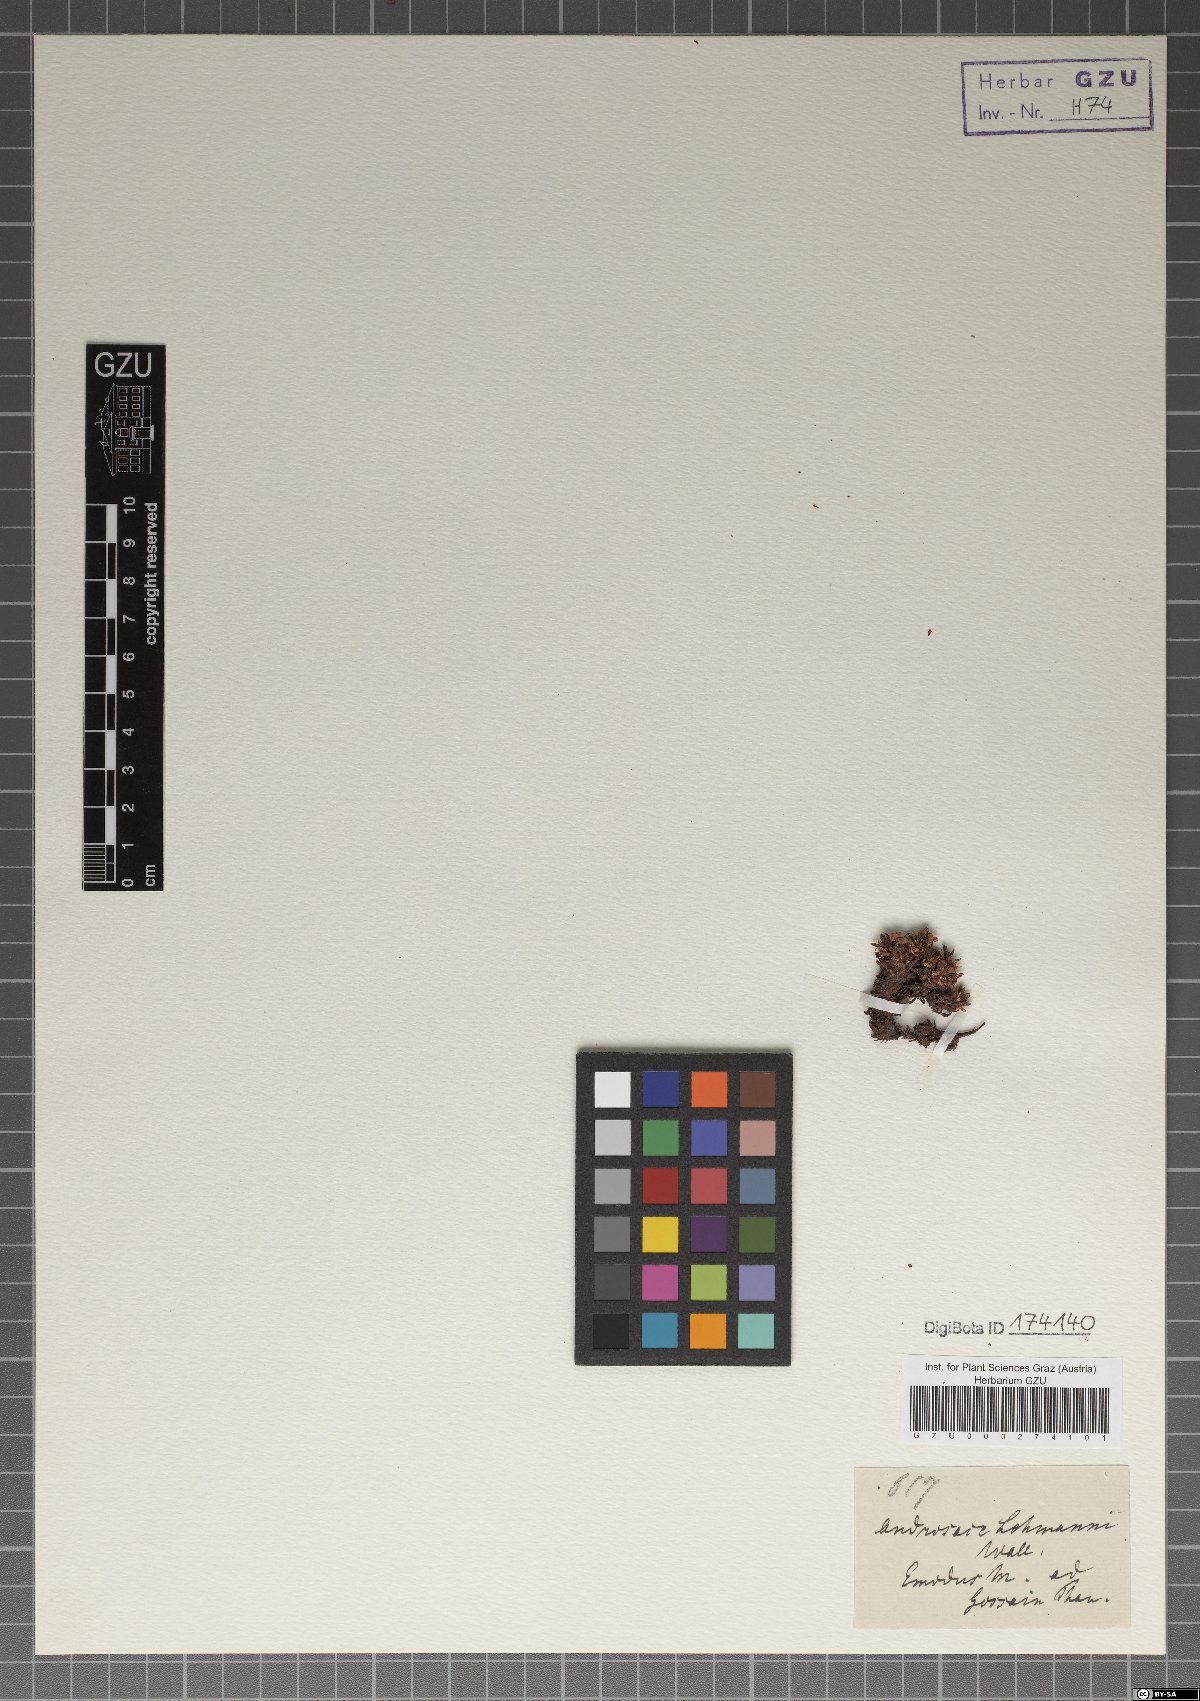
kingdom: Plantae
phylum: Tracheophyta
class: Magnoliopsida
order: Ericales
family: Primulaceae
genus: Androsace
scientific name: Androsace lehmannii
